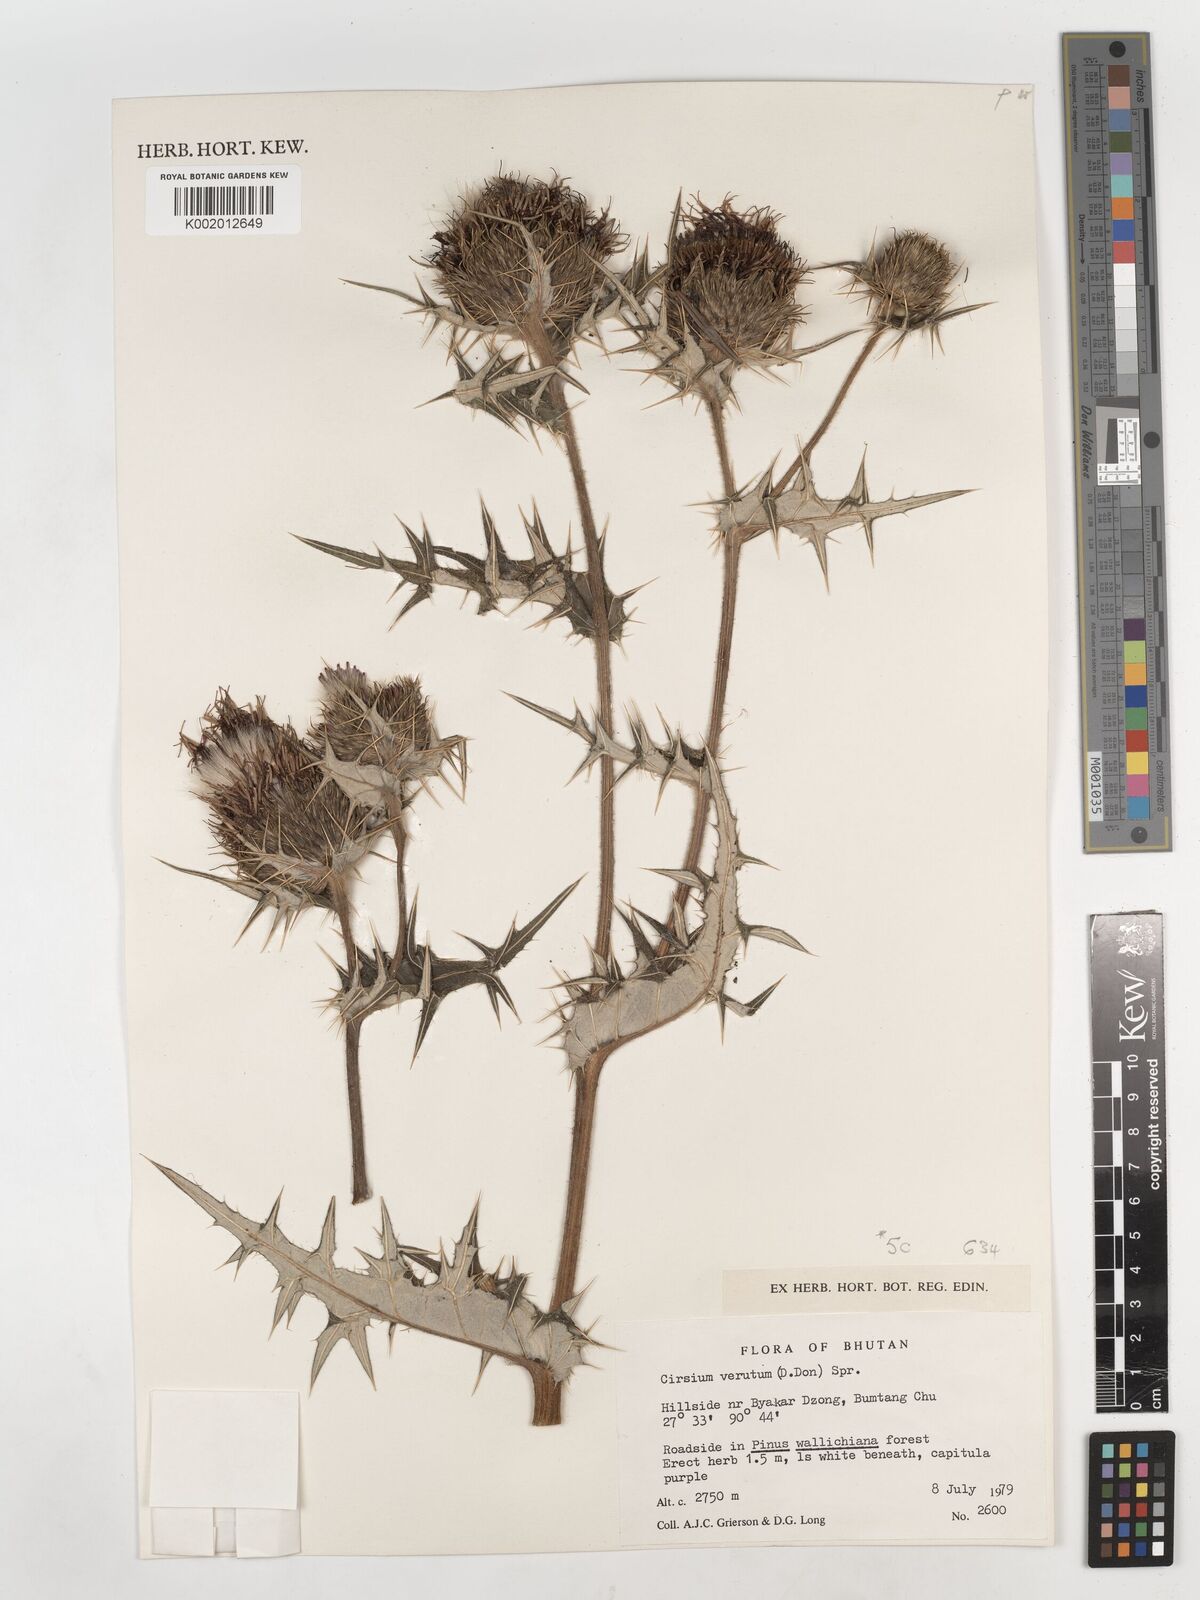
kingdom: Plantae
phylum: Tracheophyta
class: Magnoliopsida
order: Asterales
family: Asteraceae
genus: Lophiolepis
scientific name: Lophiolepis veruta
